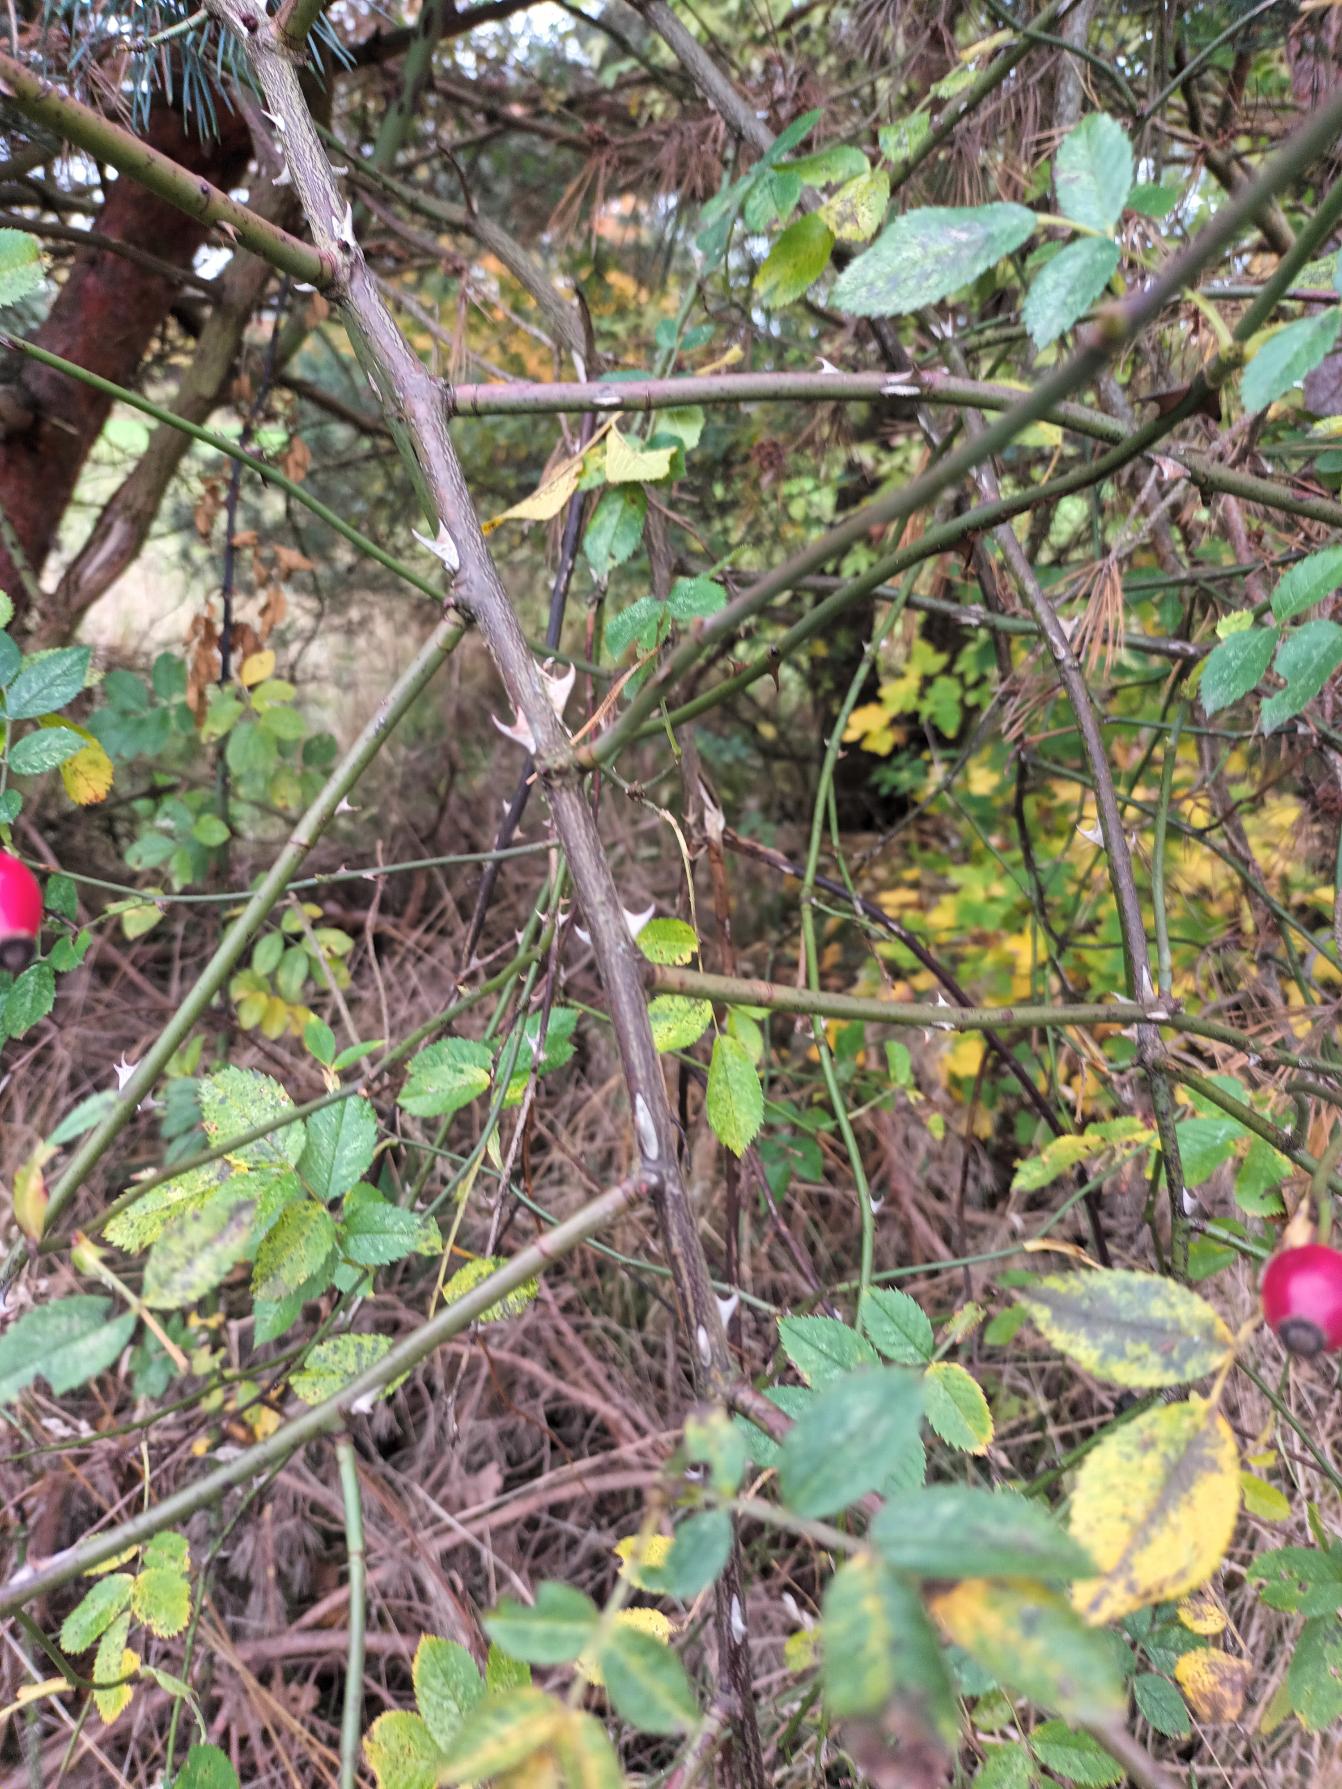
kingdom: Plantae
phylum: Tracheophyta
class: Magnoliopsida
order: Rosales
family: Rosaceae
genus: Rosa
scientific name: Rosa canina
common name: Glat hunde-rose
